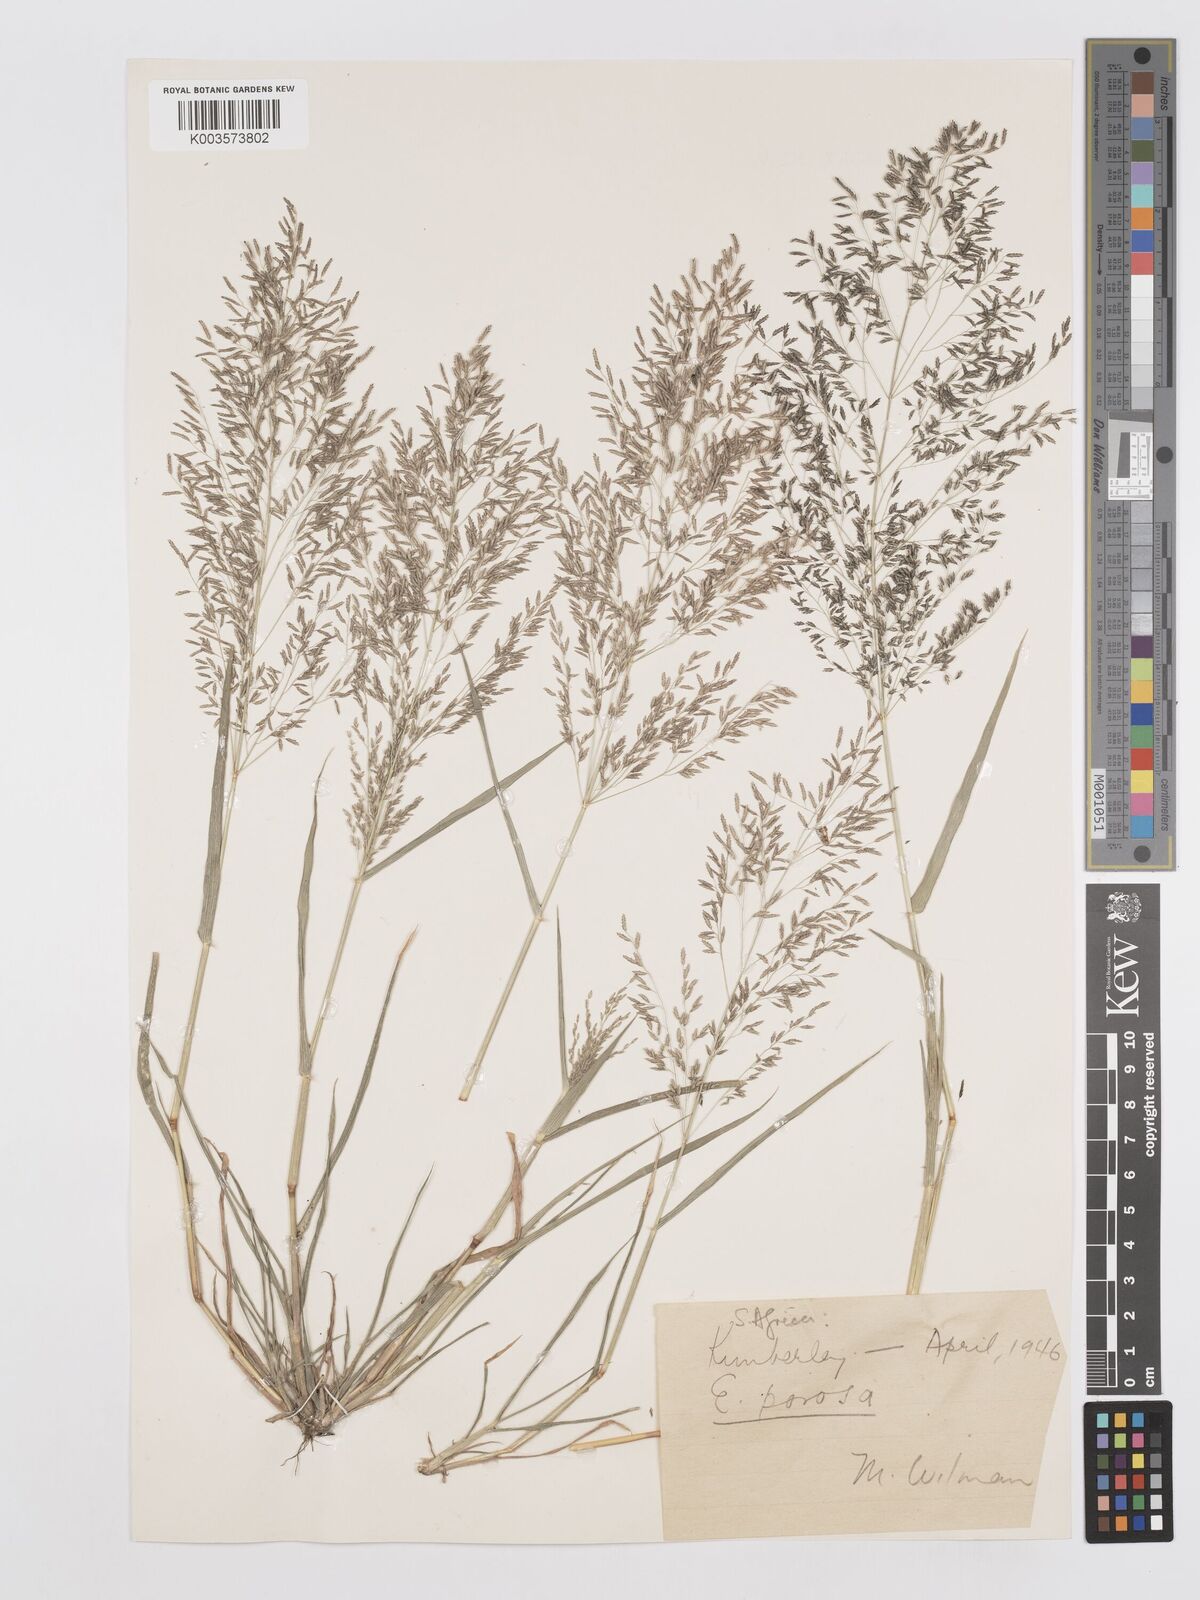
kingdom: Plantae
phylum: Tracheophyta
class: Liliopsida
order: Poales
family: Poaceae
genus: Eragrostis
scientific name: Eragrostis porosa
